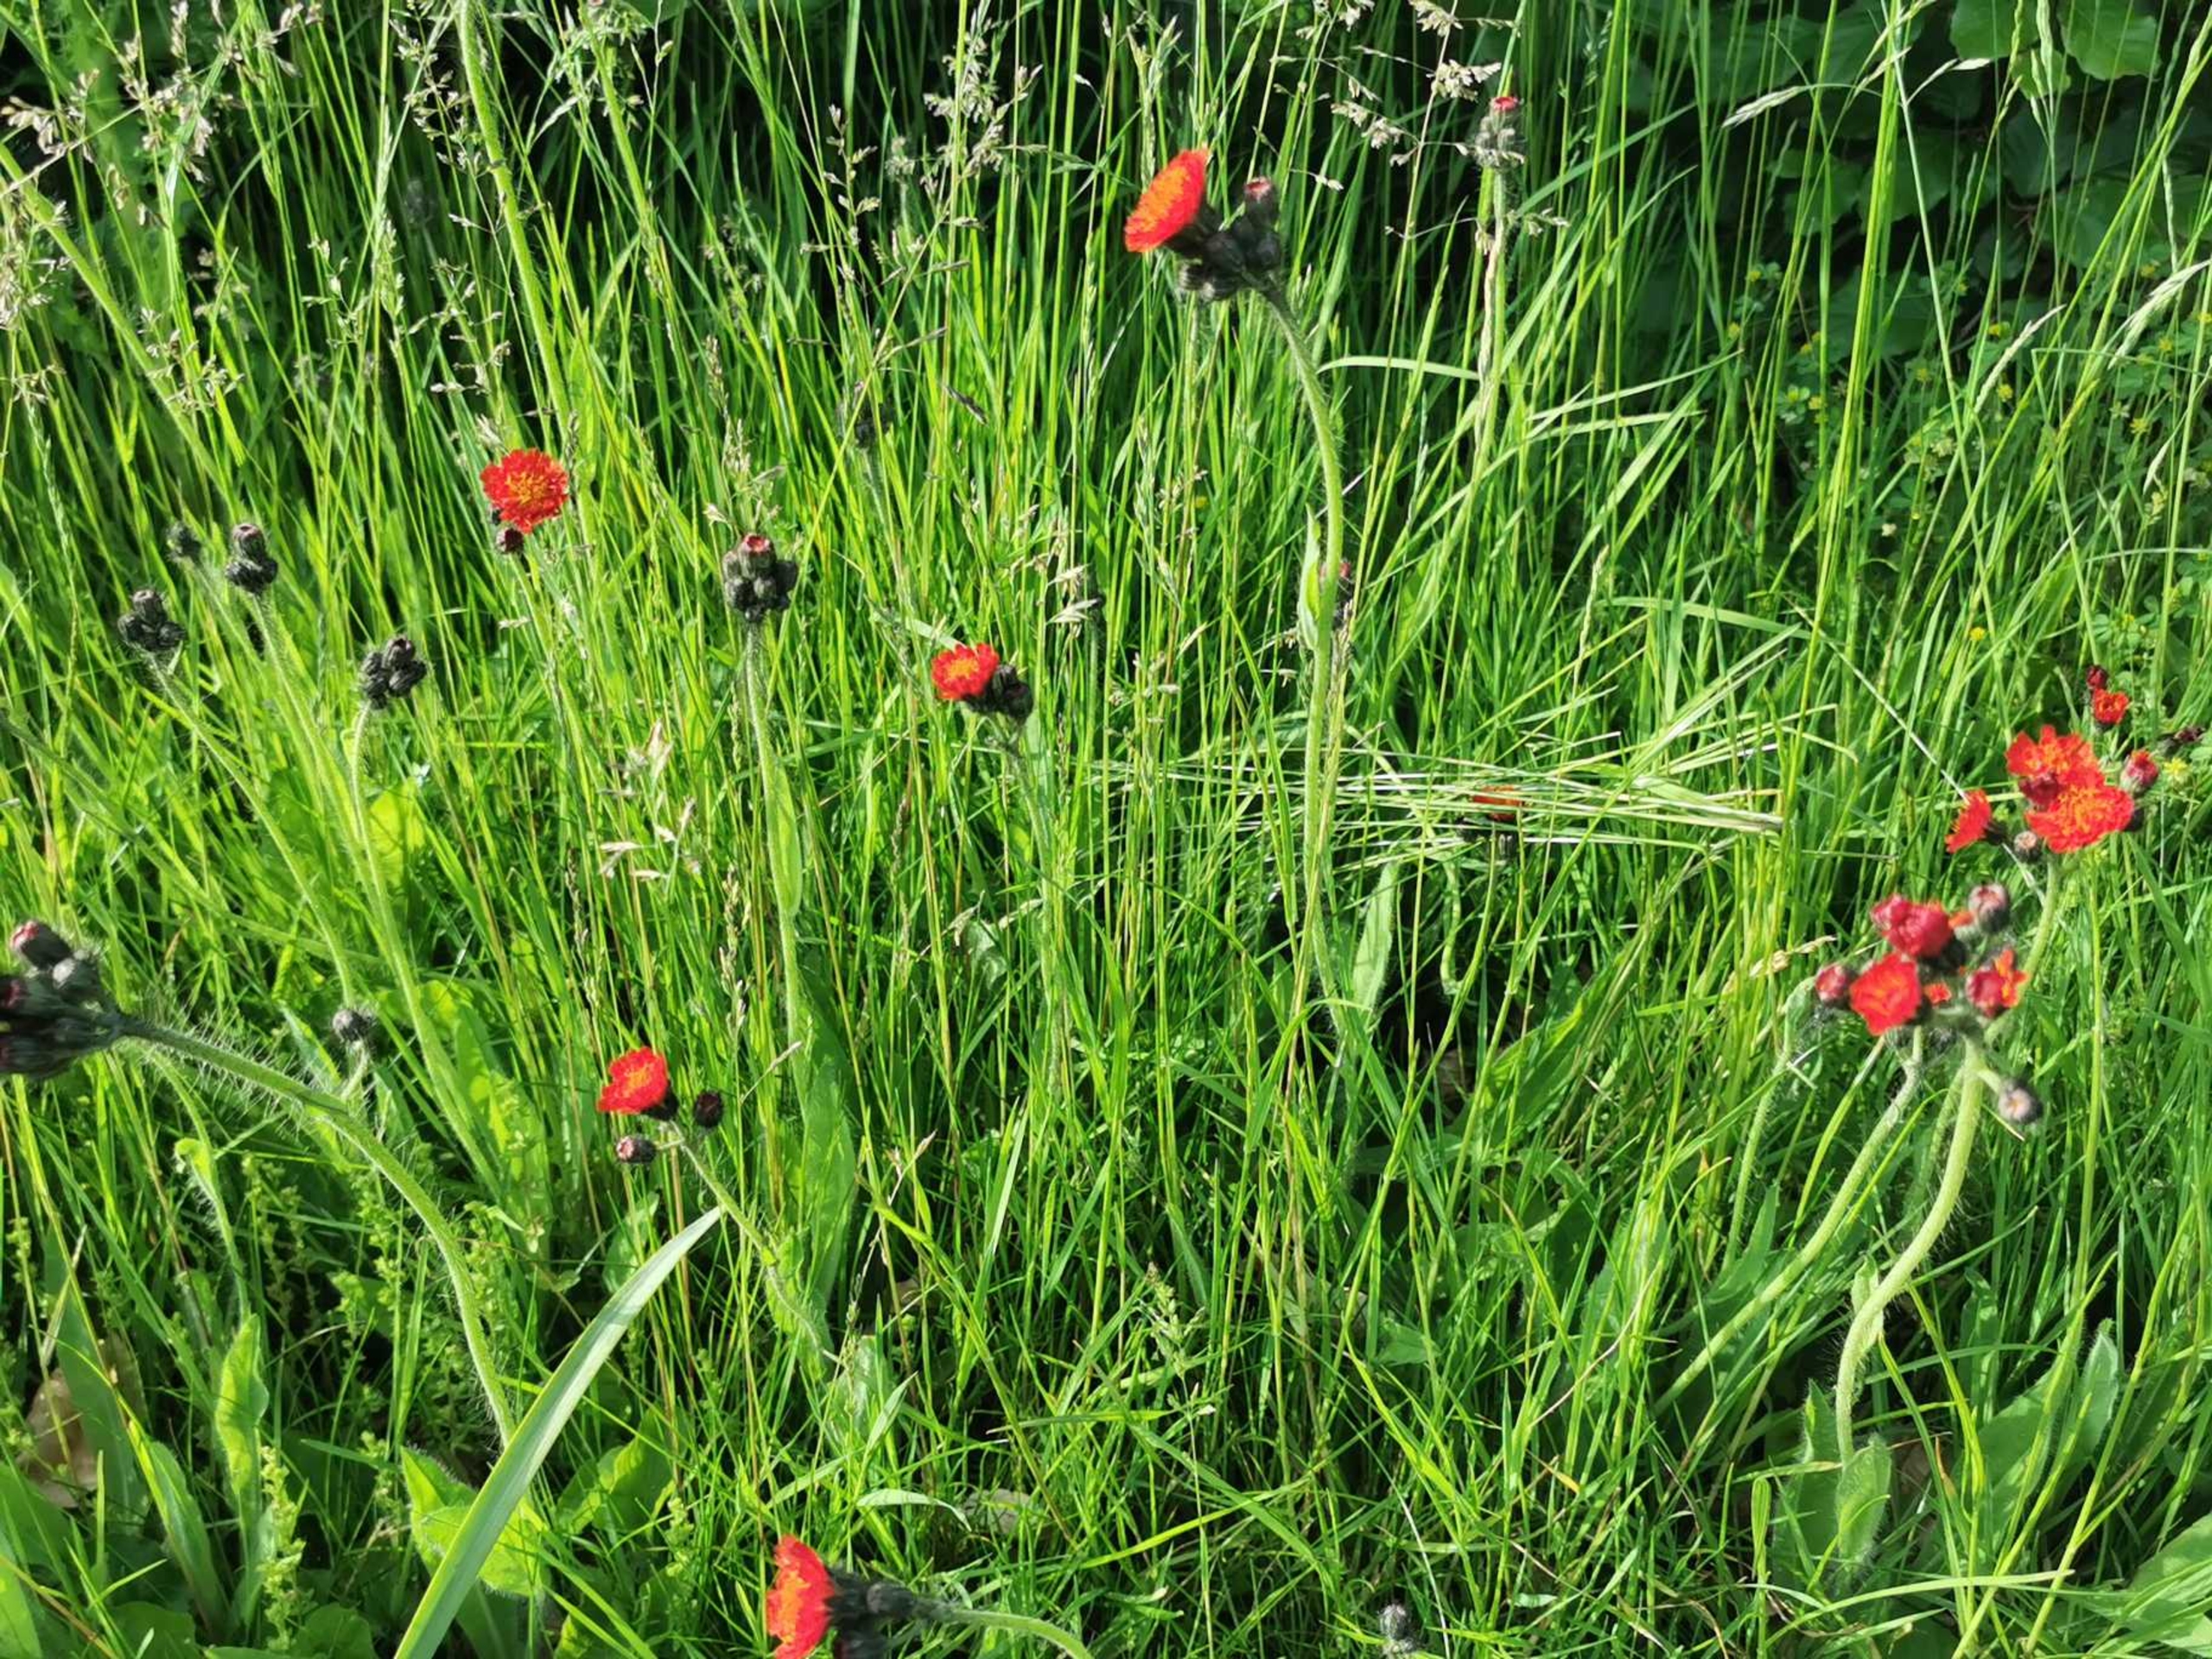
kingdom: Plantae
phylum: Tracheophyta
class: Magnoliopsida
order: Asterales
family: Asteraceae
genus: Pilosella
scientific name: Pilosella aurantiaca
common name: Pomerans-høgeurt
